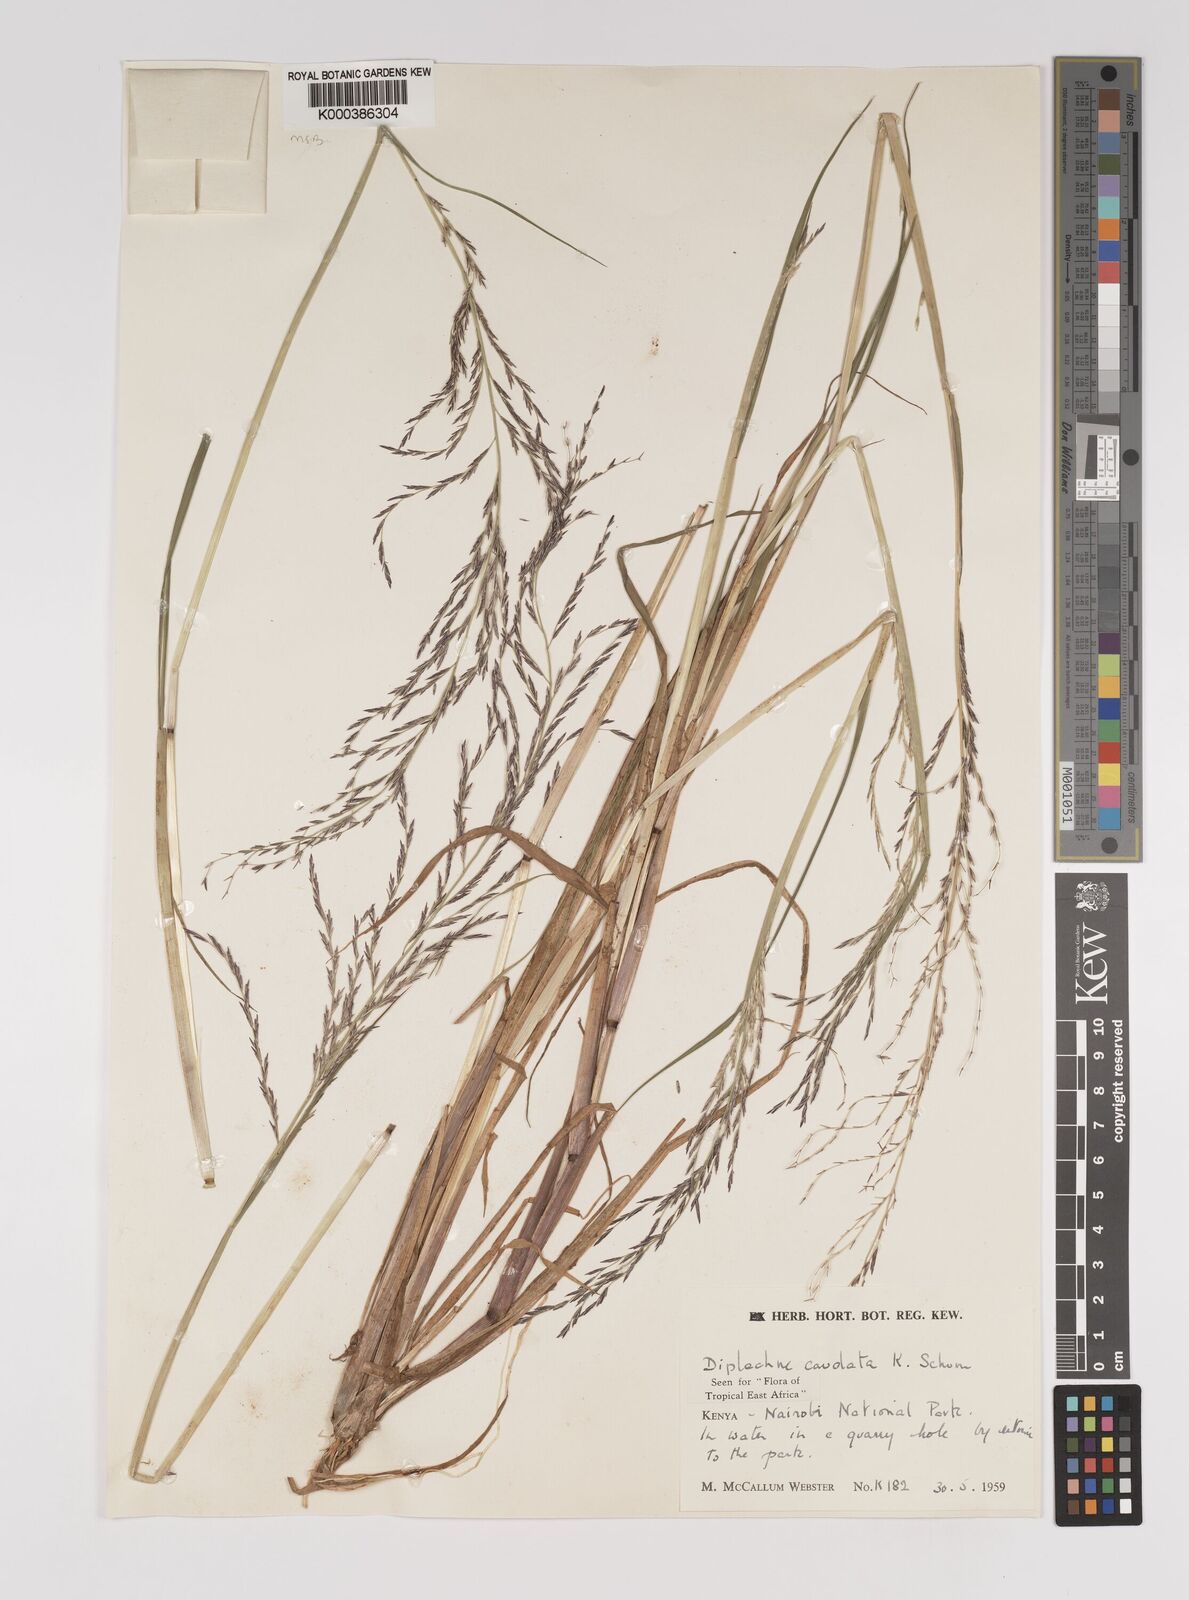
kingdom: Plantae
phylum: Tracheophyta
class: Liliopsida
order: Poales
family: Poaceae
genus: Leptochloa
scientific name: Leptochloa caudata
